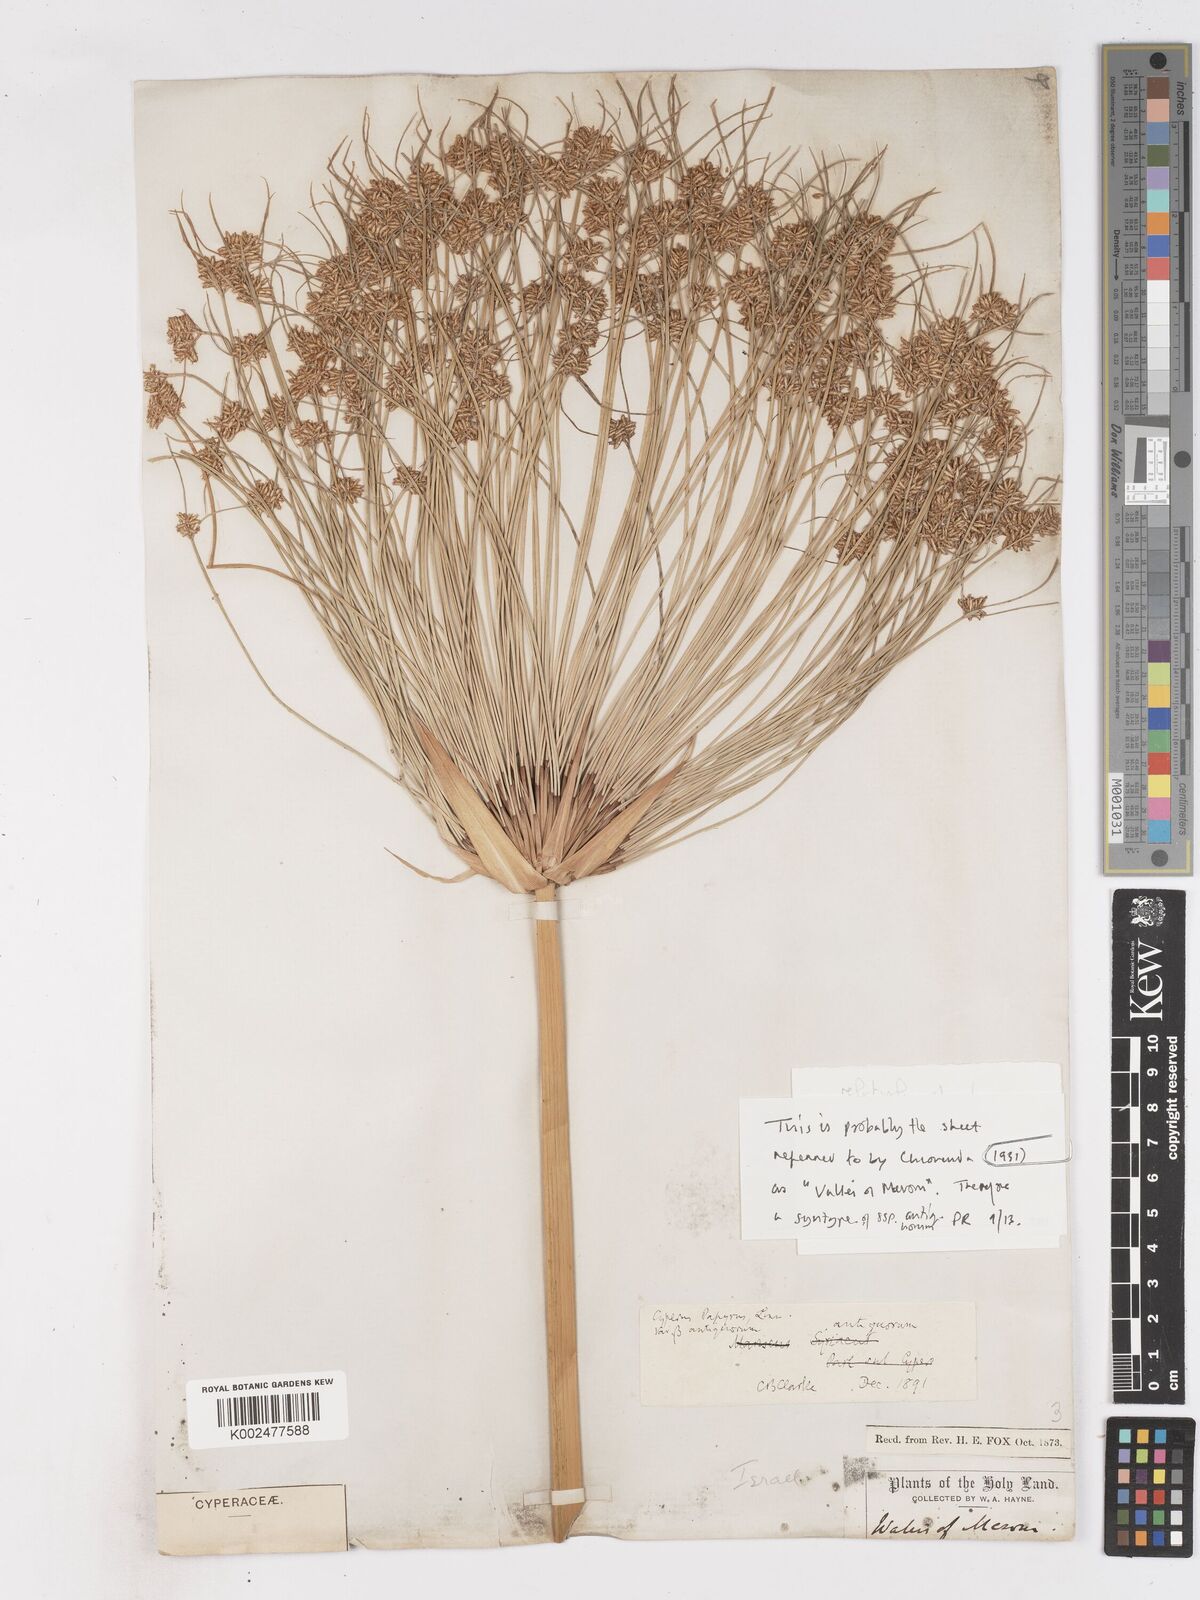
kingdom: Plantae
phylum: Tracheophyta
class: Liliopsida
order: Poales
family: Cyperaceae
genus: Cyperus
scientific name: Cyperus papyrus
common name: Papyrus
